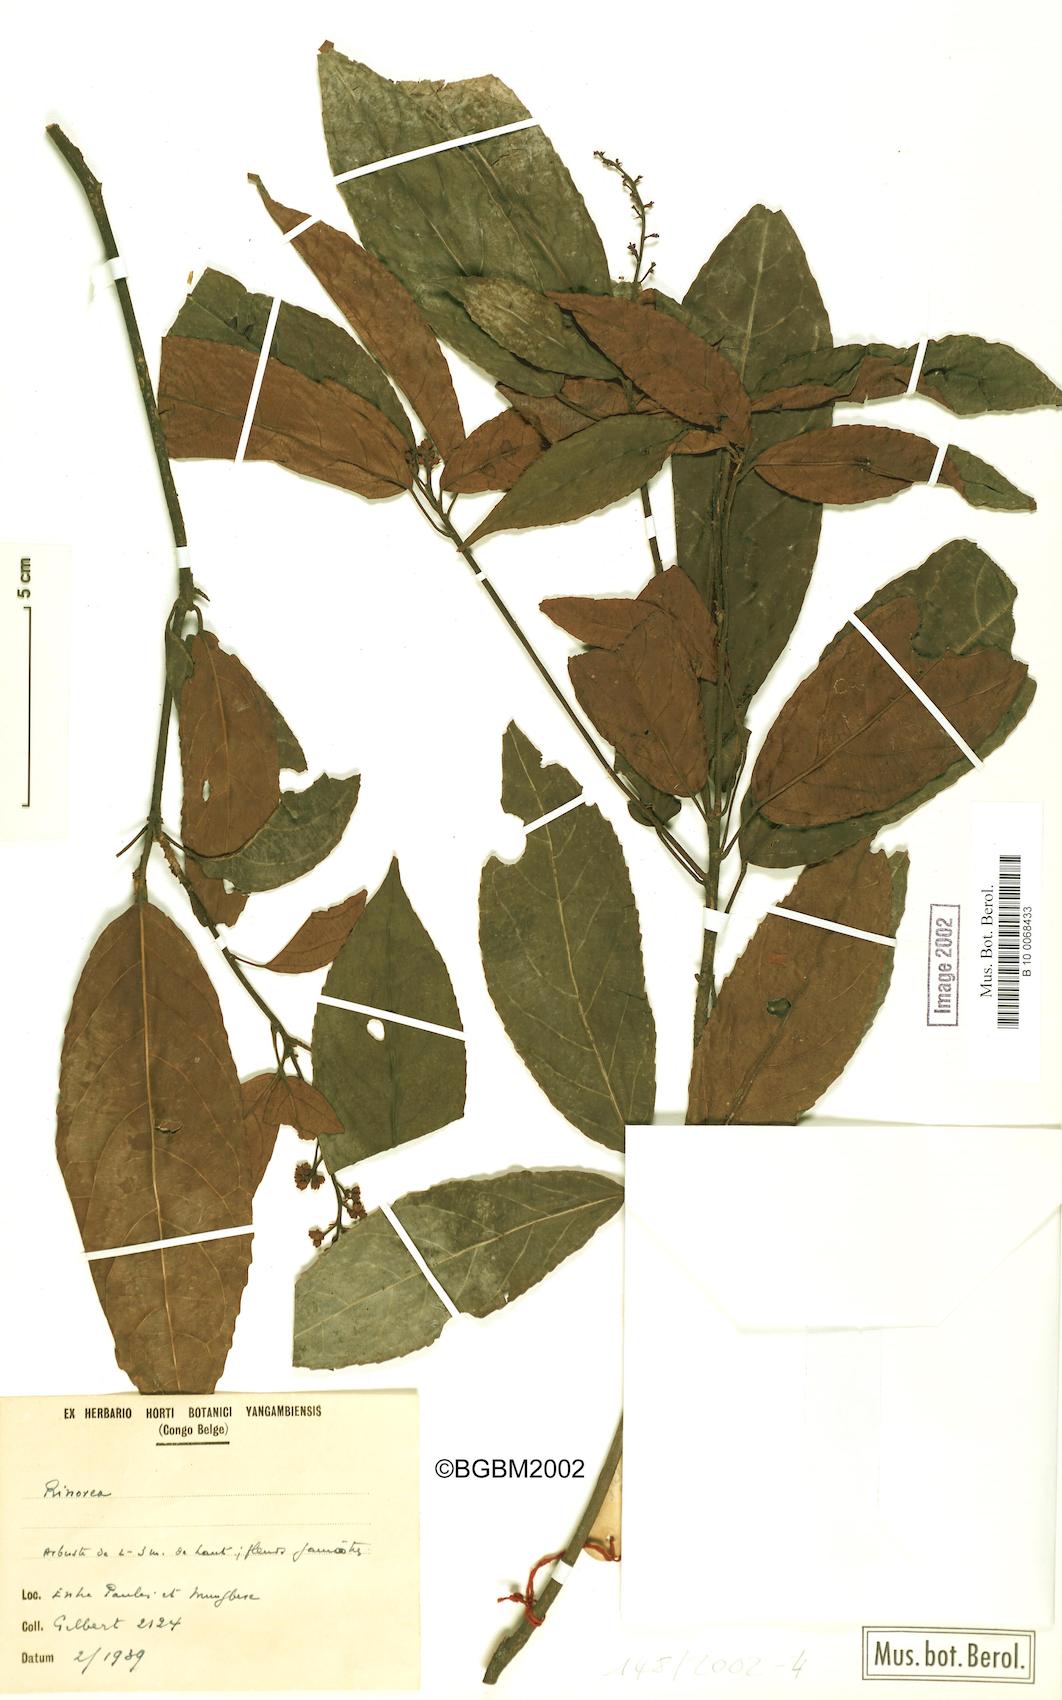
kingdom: Plantae
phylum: Tracheophyta
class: Magnoliopsida
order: Malpighiales
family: Violaceae
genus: Rinorea
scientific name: Rinorea
